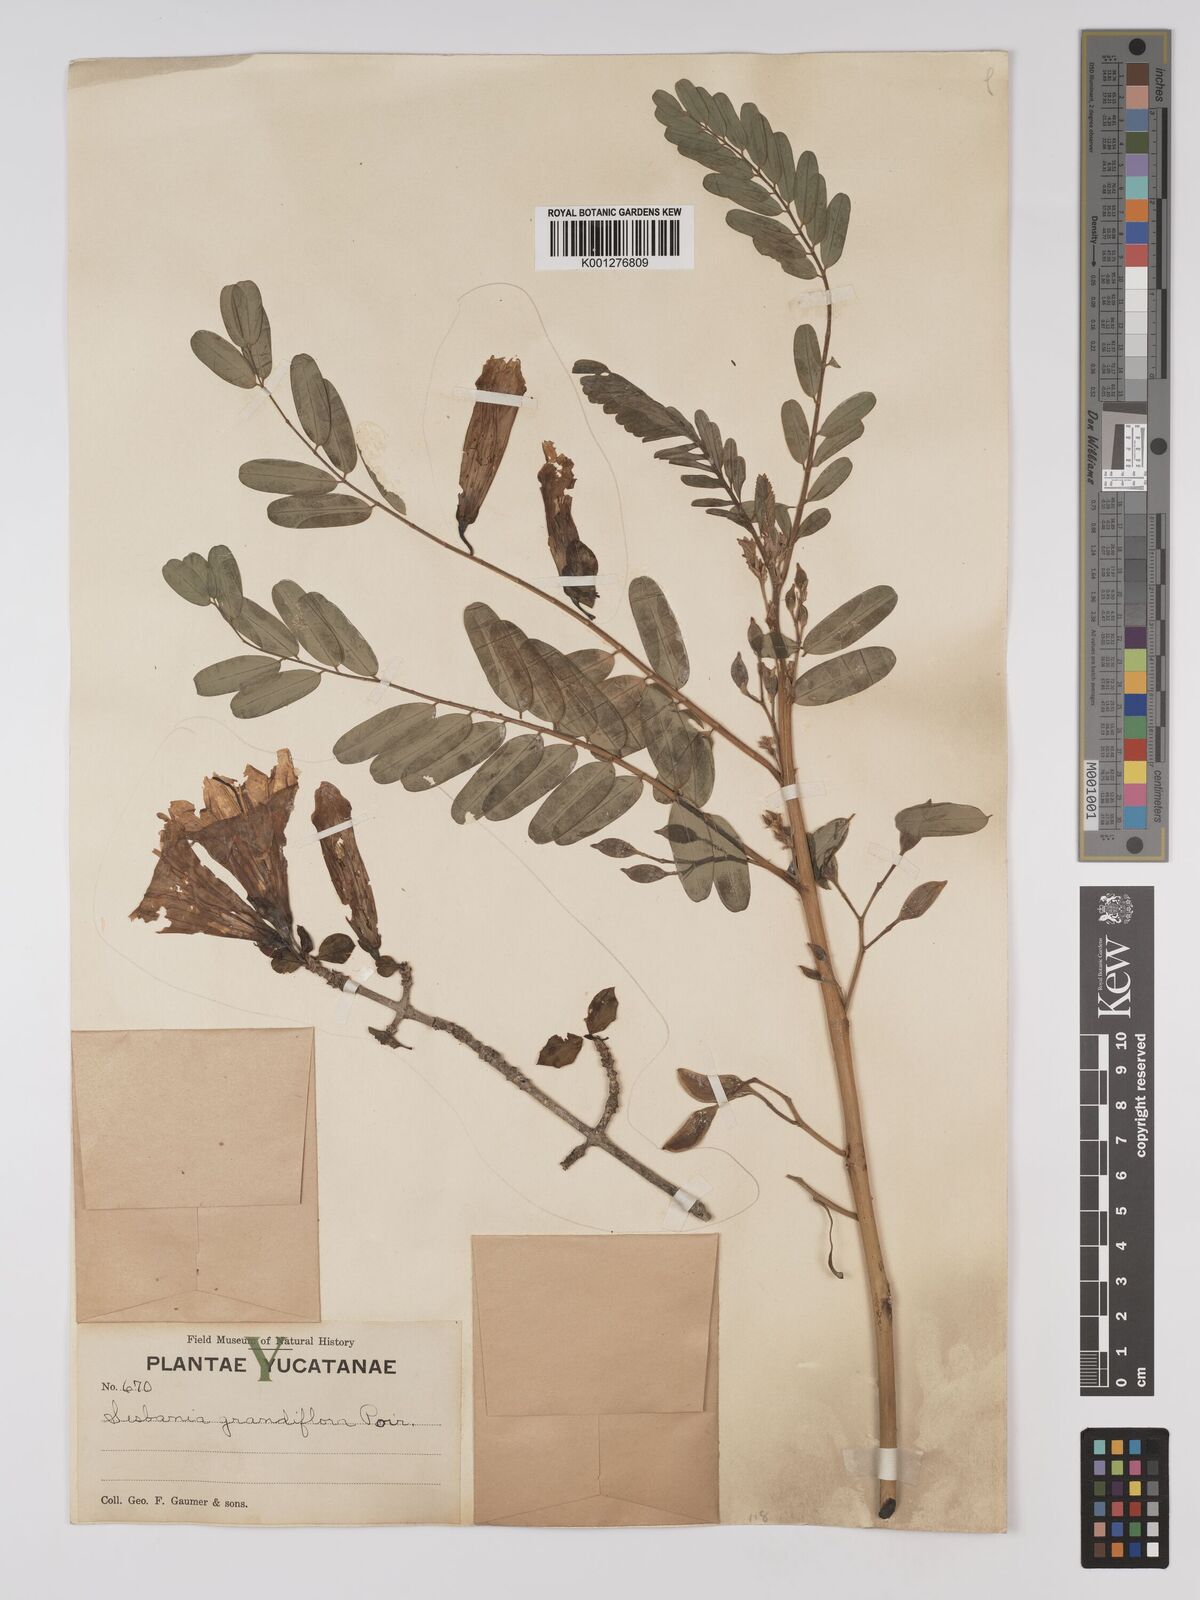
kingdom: Plantae
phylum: Tracheophyta
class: Magnoliopsida
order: Fabales
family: Fabaceae
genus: Sesbania
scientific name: Sesbania
